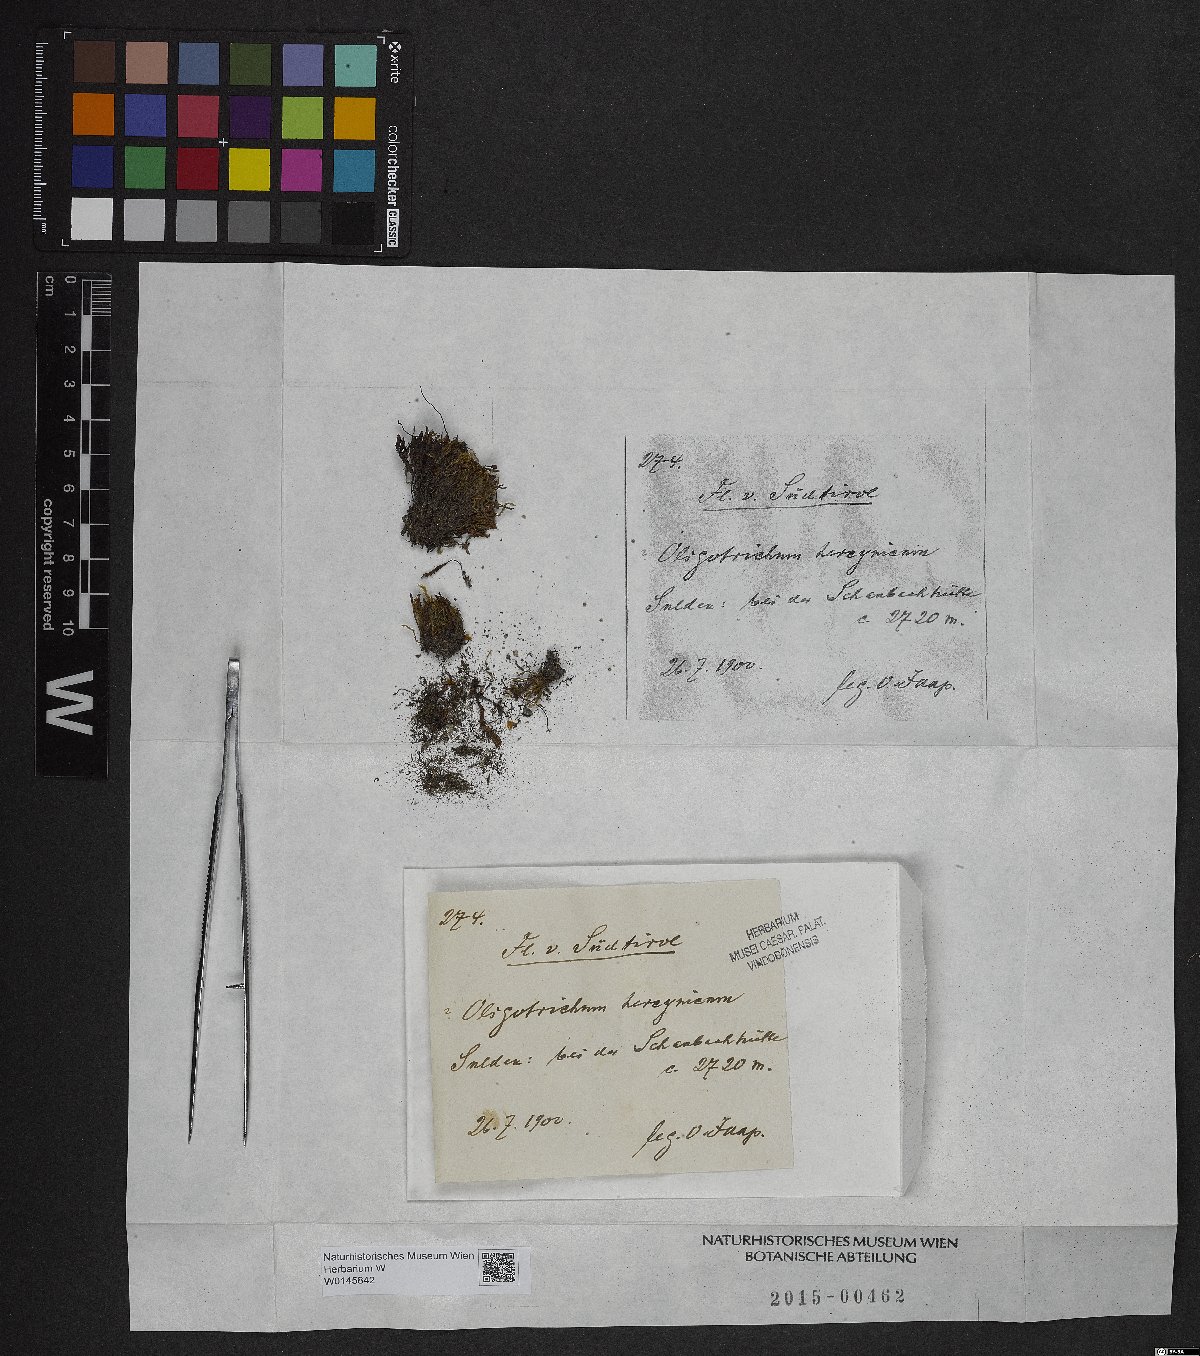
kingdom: Plantae
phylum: Bryophyta
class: Polytrichopsida
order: Polytrichales
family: Polytrichaceae
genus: Oligotrichum
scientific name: Oligotrichum hercynicum
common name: Hercynian hair moss
